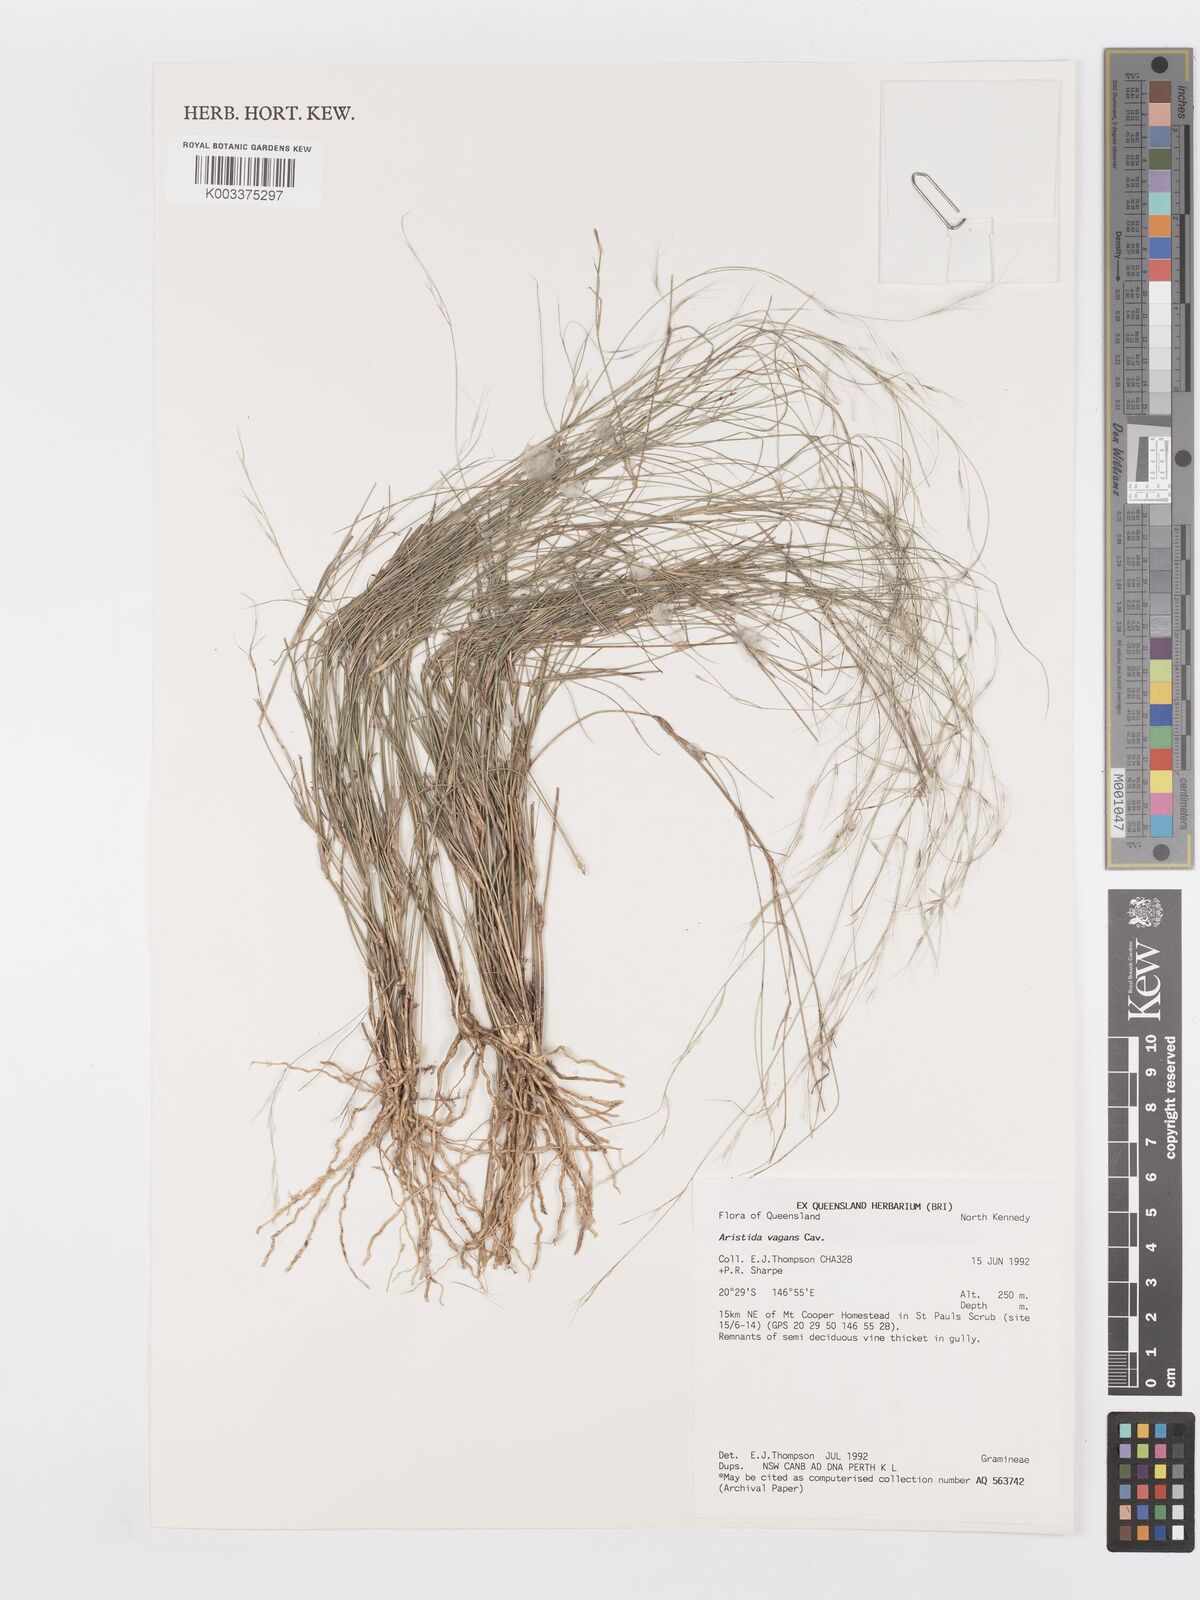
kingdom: Plantae
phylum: Tracheophyta
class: Liliopsida
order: Poales
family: Poaceae
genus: Aristida
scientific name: Aristida vagans
